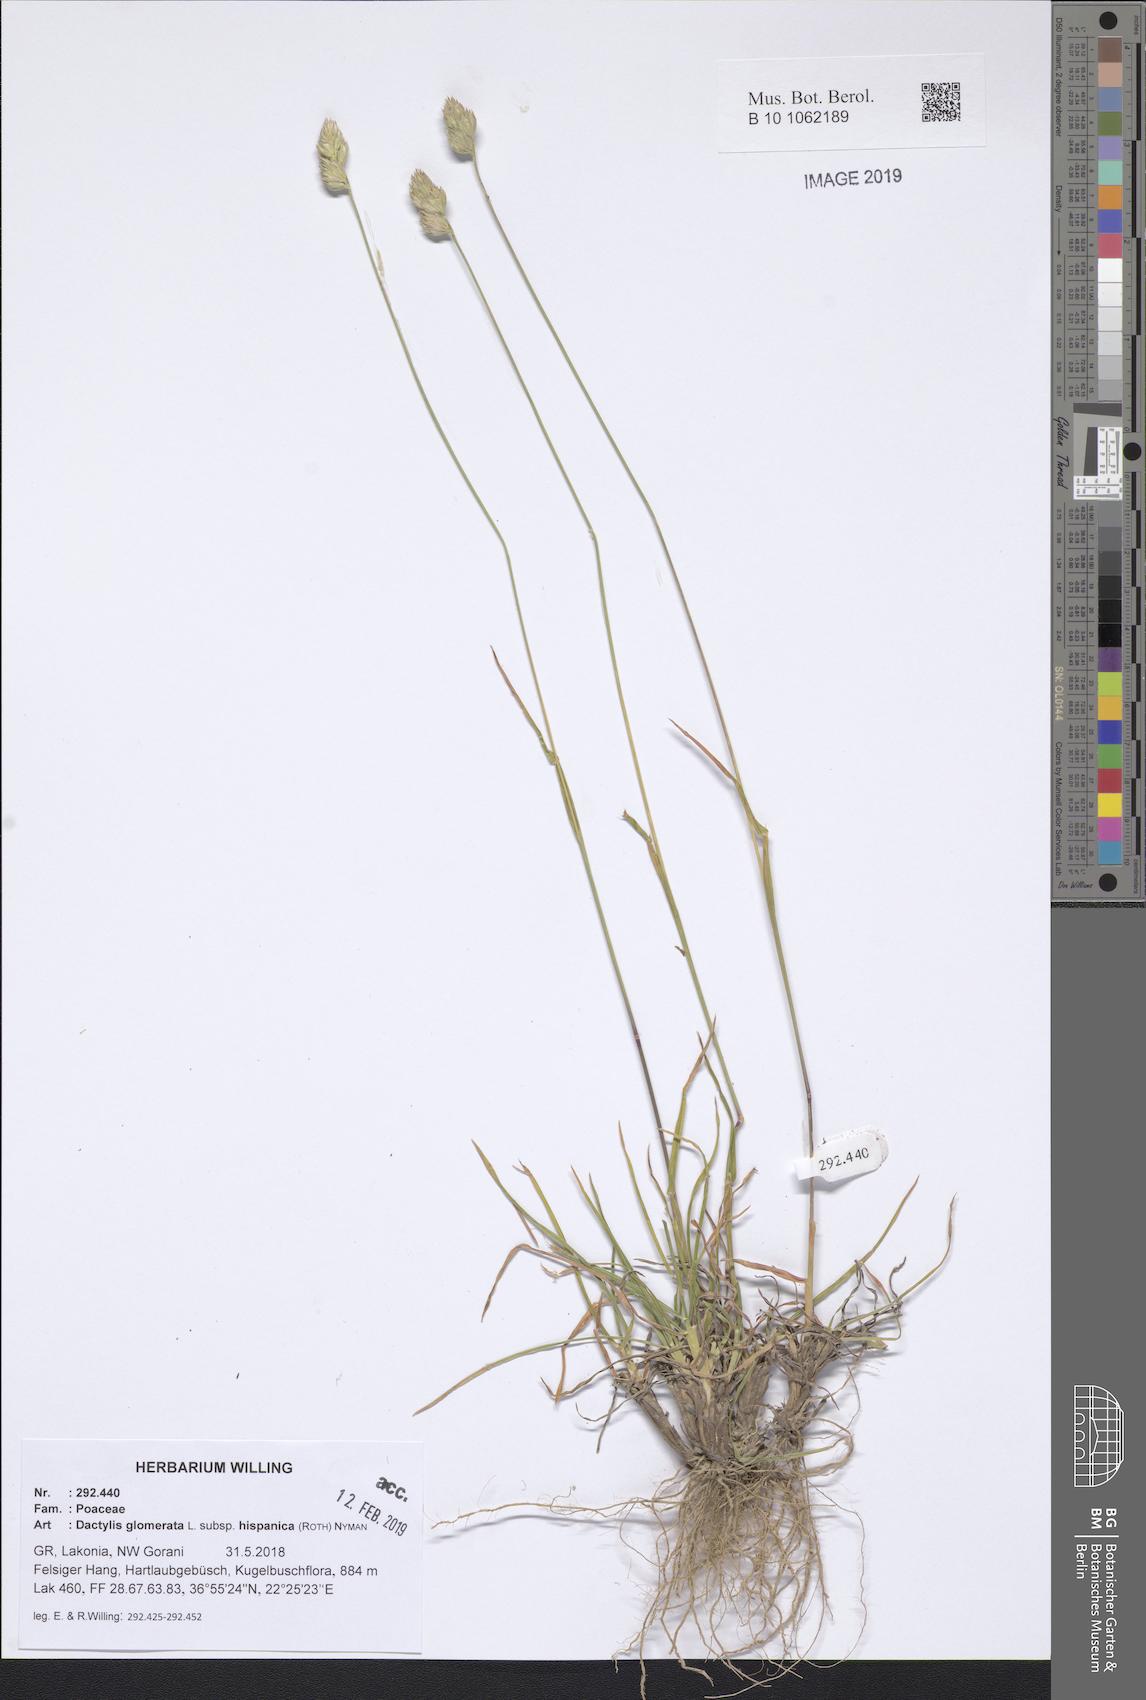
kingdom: Plantae
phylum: Tracheophyta
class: Liliopsida
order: Poales
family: Poaceae
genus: Dactylis
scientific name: Dactylis glomerata
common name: Orchardgrass
